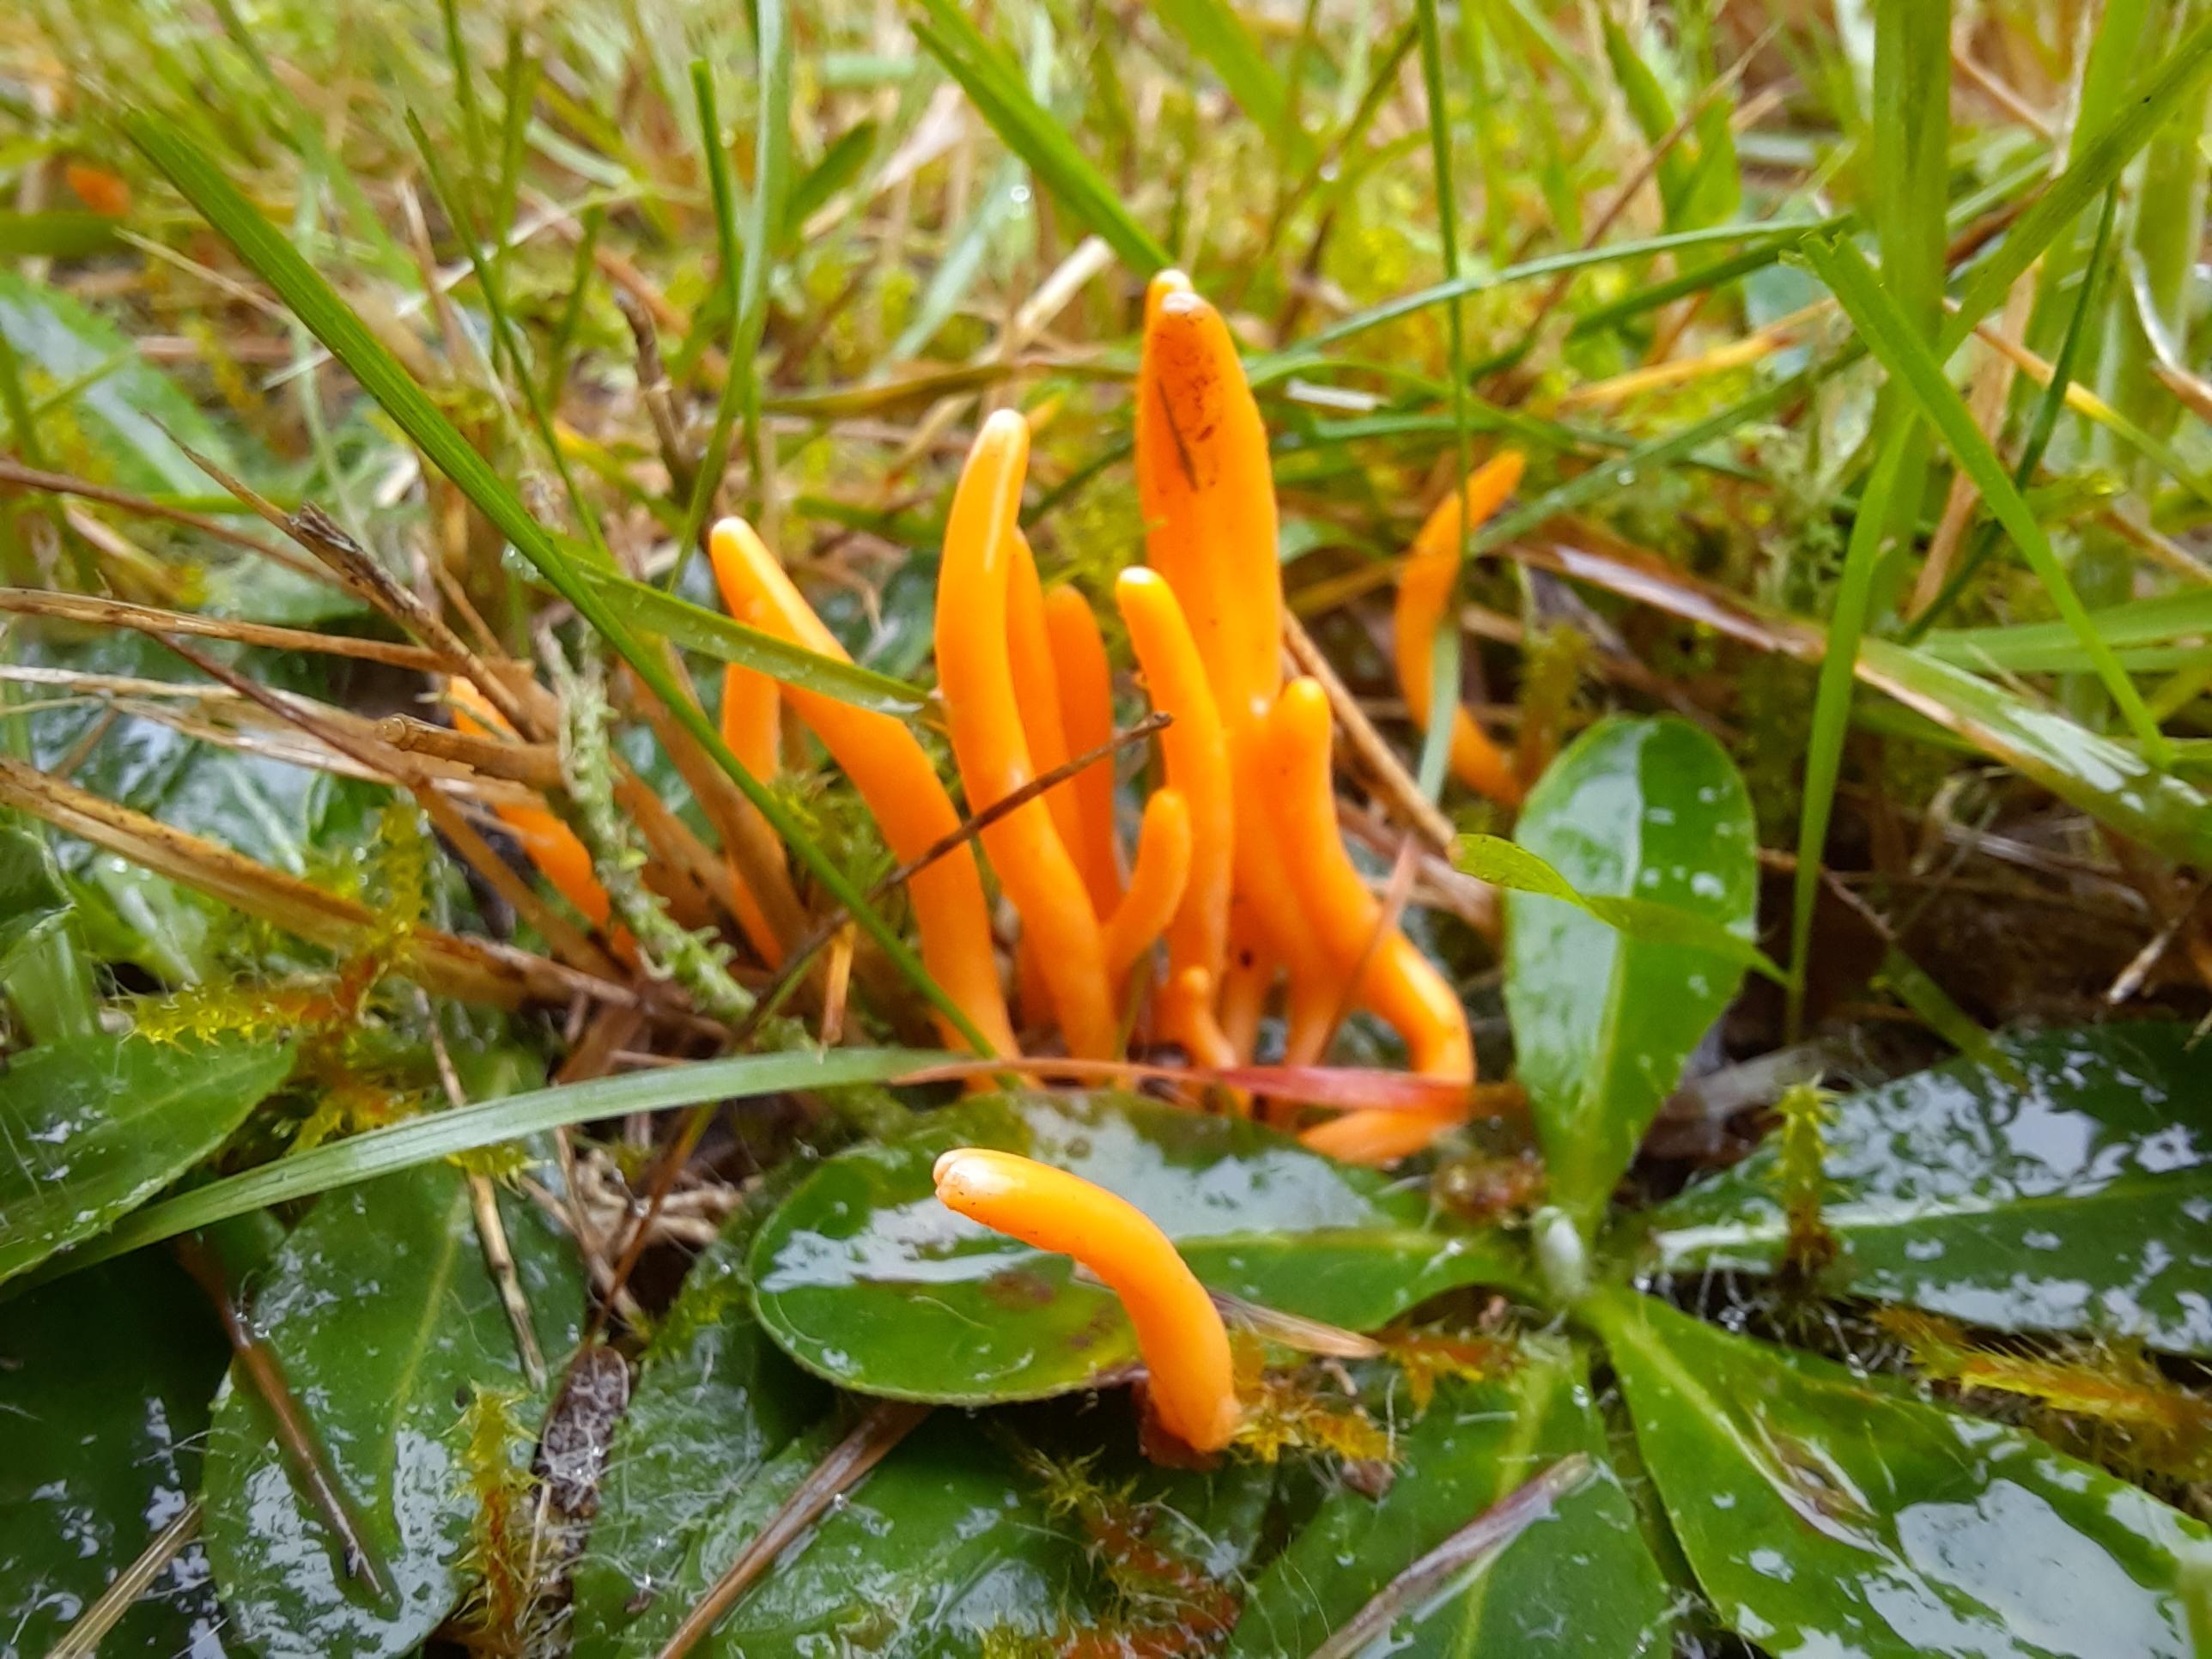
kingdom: Fungi
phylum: Basidiomycota
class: Agaricomycetes
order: Agaricales
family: Clavariaceae
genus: Clavulinopsis
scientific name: Clavulinopsis
